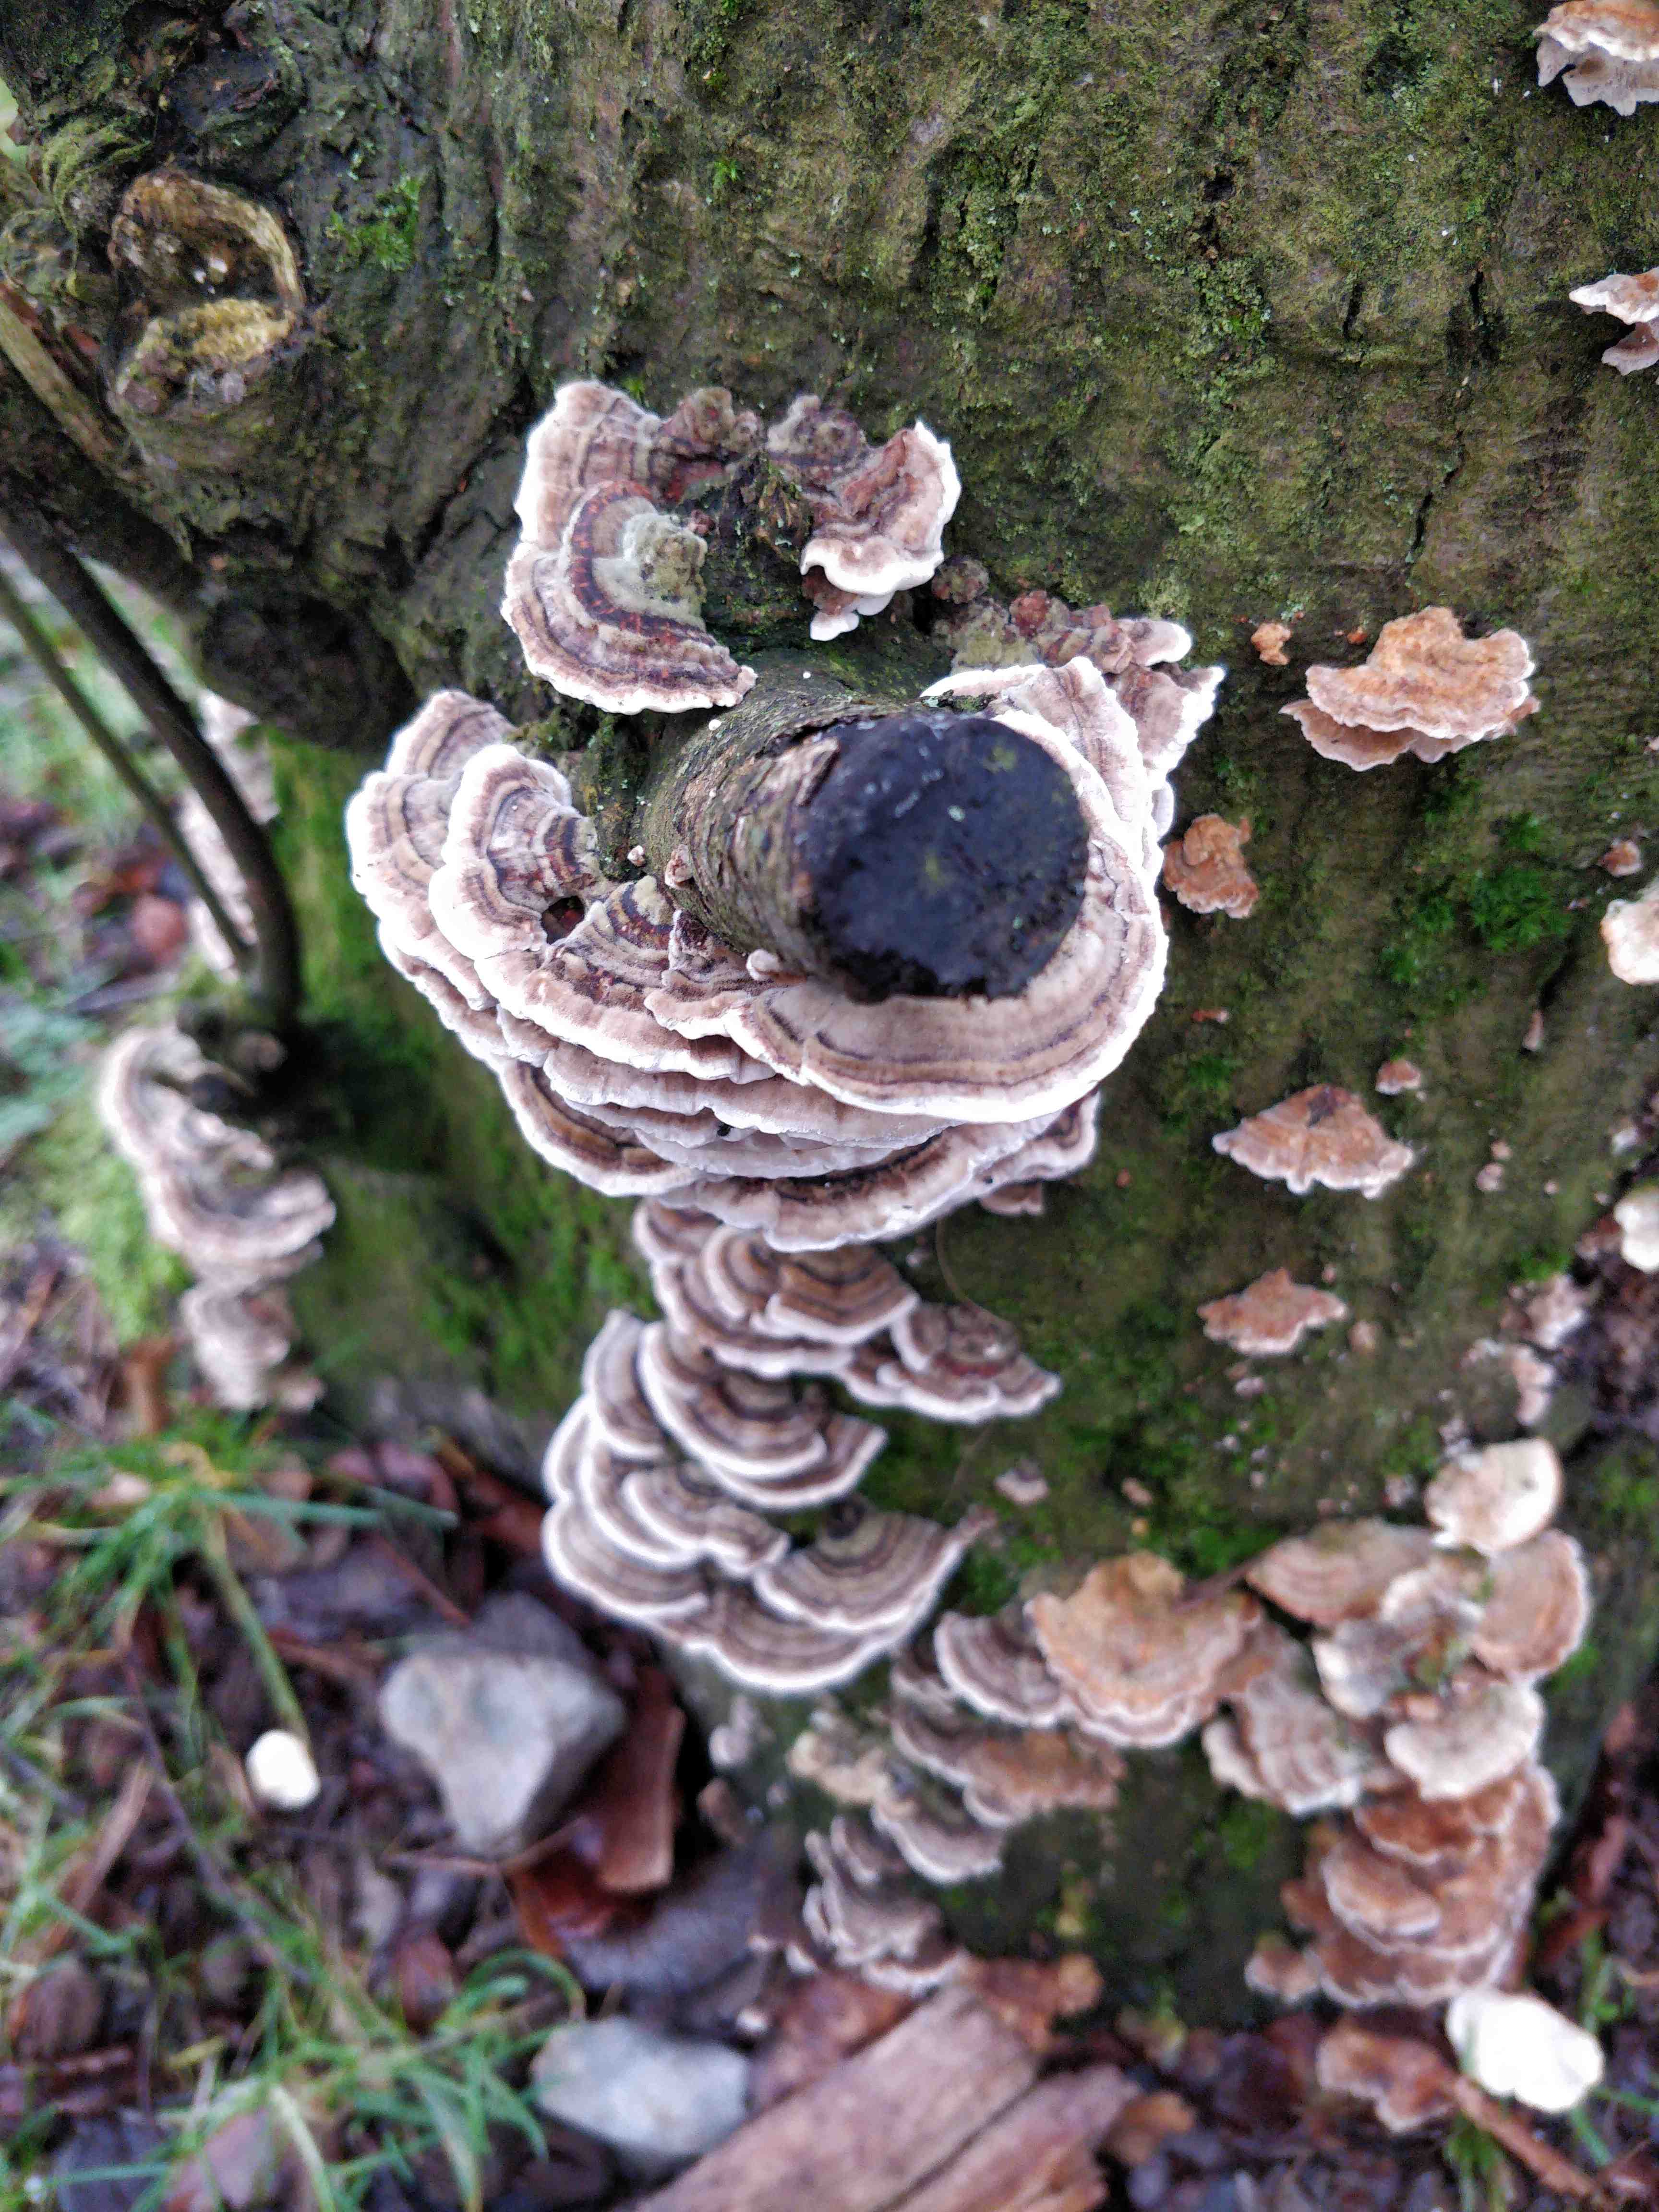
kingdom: Fungi
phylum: Basidiomycota
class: Agaricomycetes
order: Polyporales
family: Polyporaceae
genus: Trametes
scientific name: Trametes versicolor
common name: broget læderporesvamp
